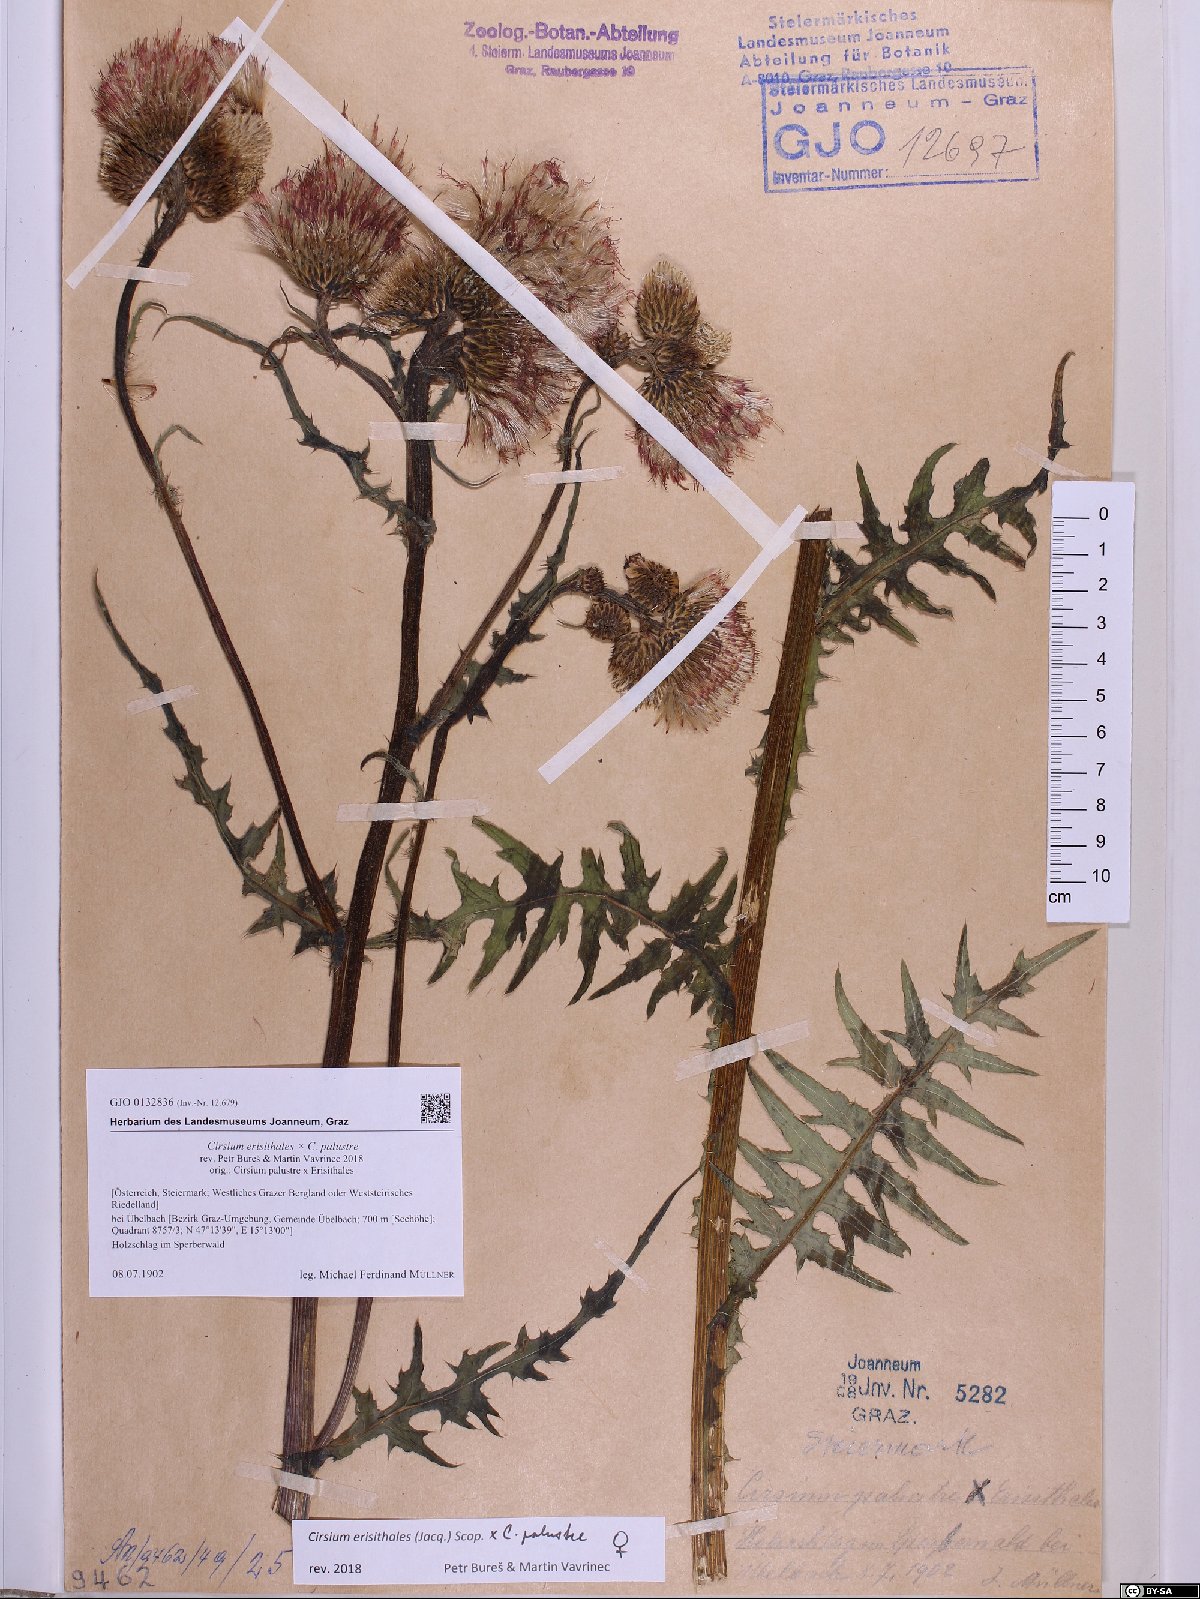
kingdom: Plantae
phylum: Tracheophyta
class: Magnoliopsida
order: Asterales
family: Asteraceae
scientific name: Asteraceae
